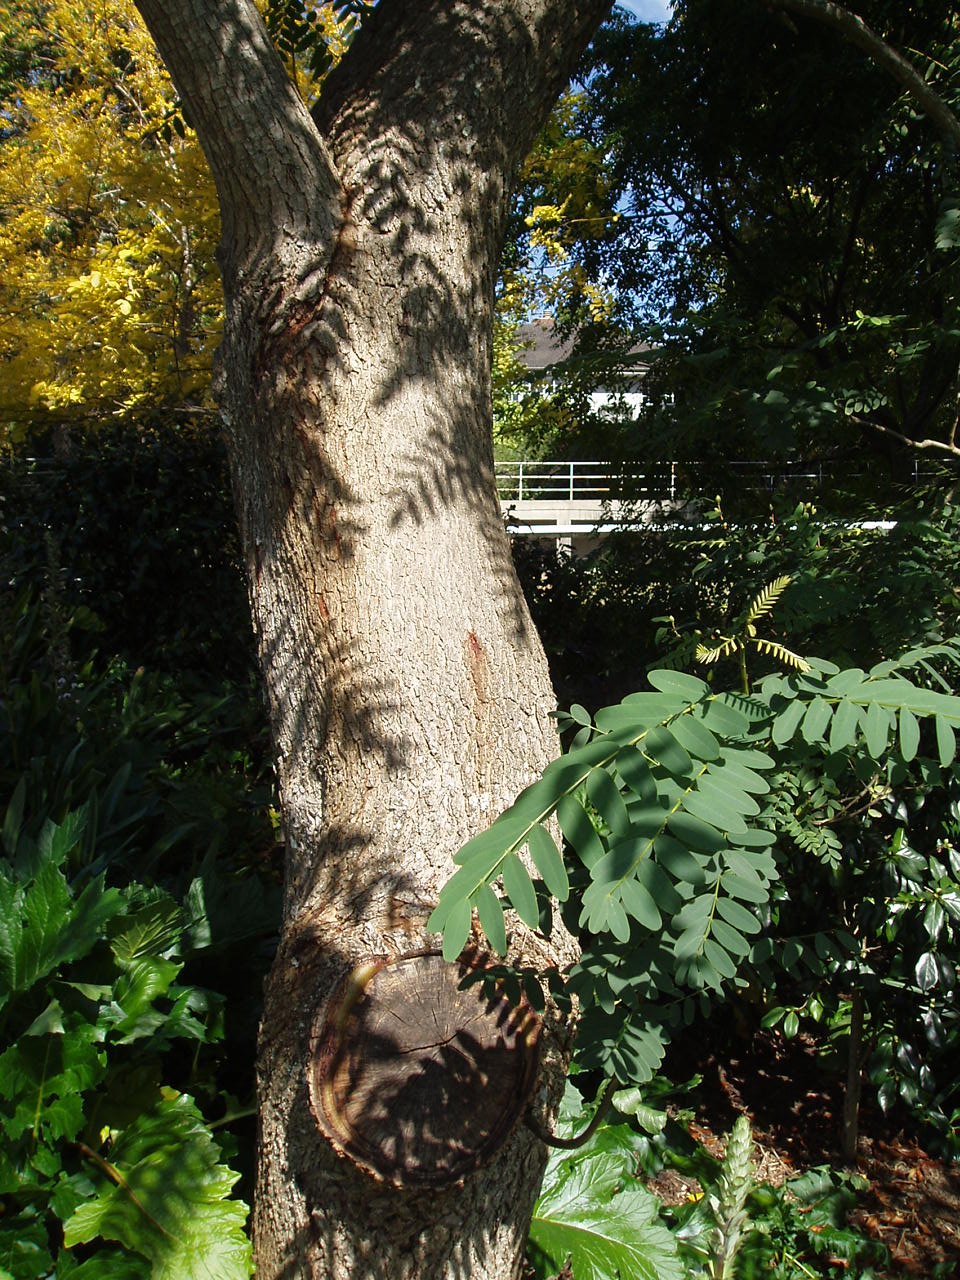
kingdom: Plantae
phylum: Tracheophyta
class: Magnoliopsida
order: Fabales
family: Fabaceae
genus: Tipuana
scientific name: Tipuana tipu
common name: Tiputree
